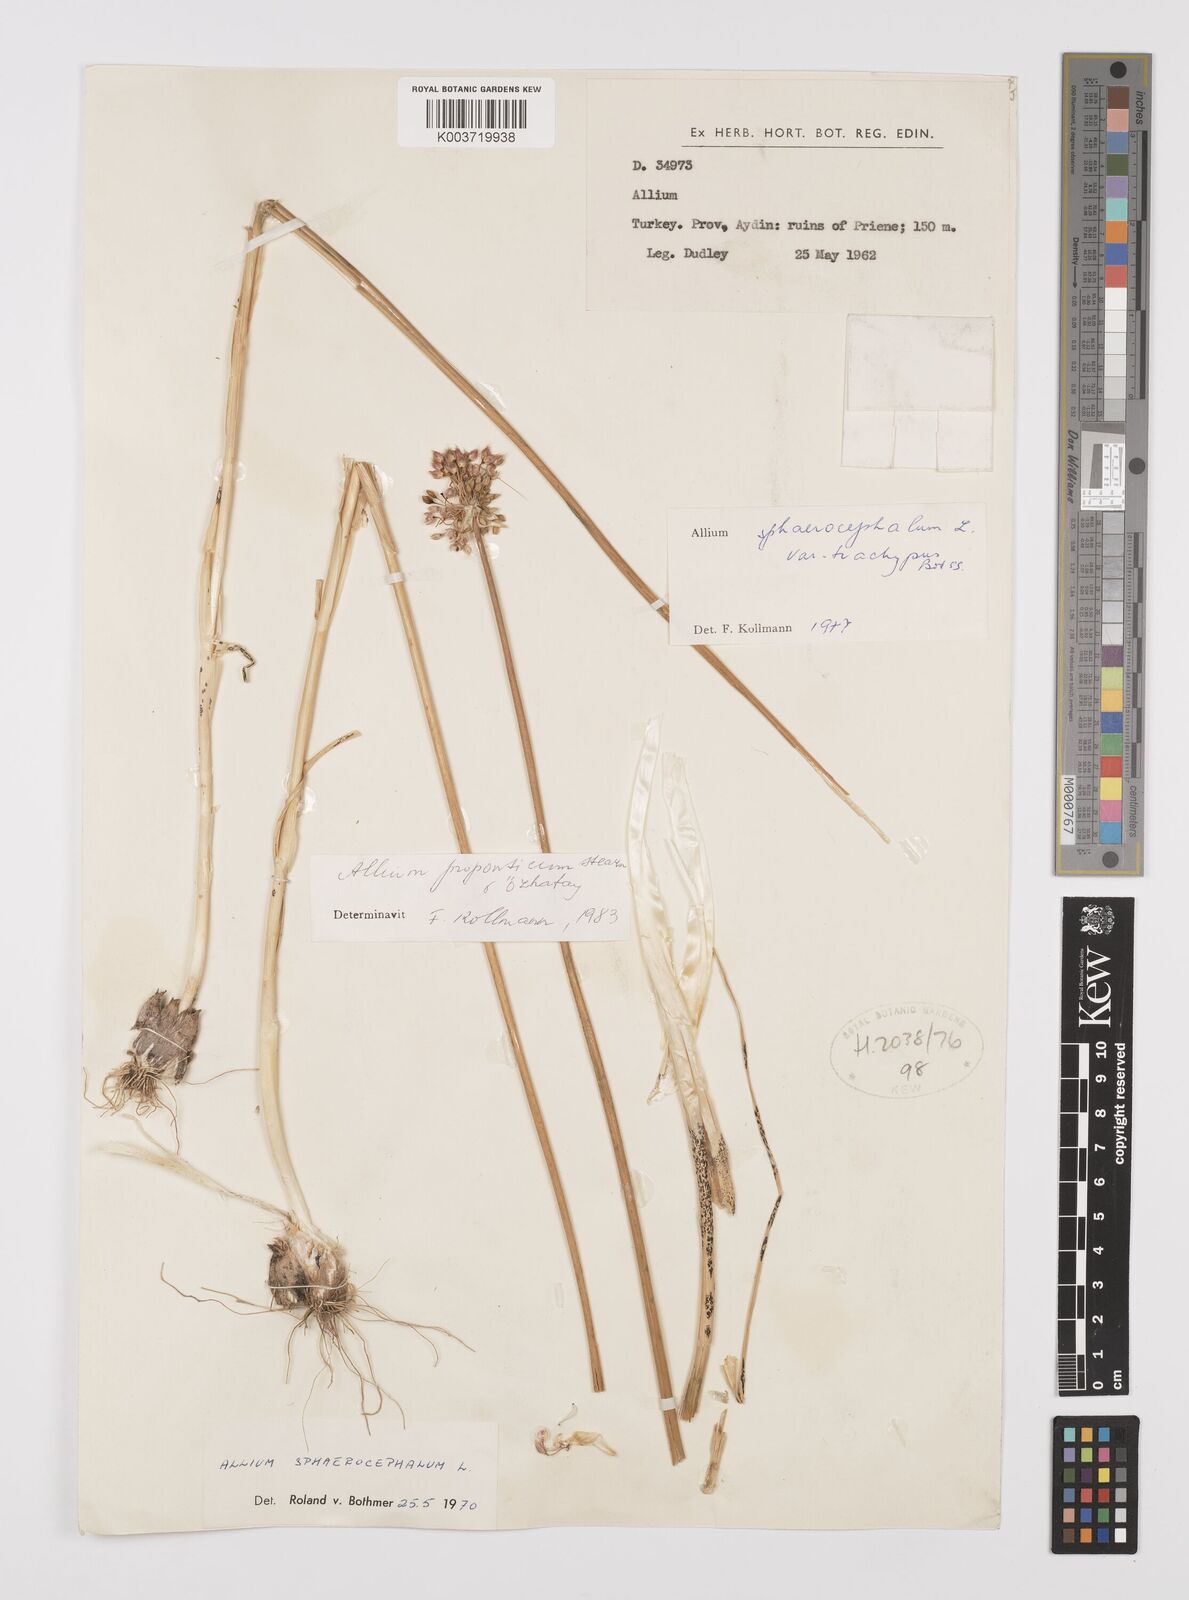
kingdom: Plantae
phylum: Tracheophyta
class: Liliopsida
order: Asparagales
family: Amaryllidaceae
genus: Allium
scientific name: Allium proponticum
